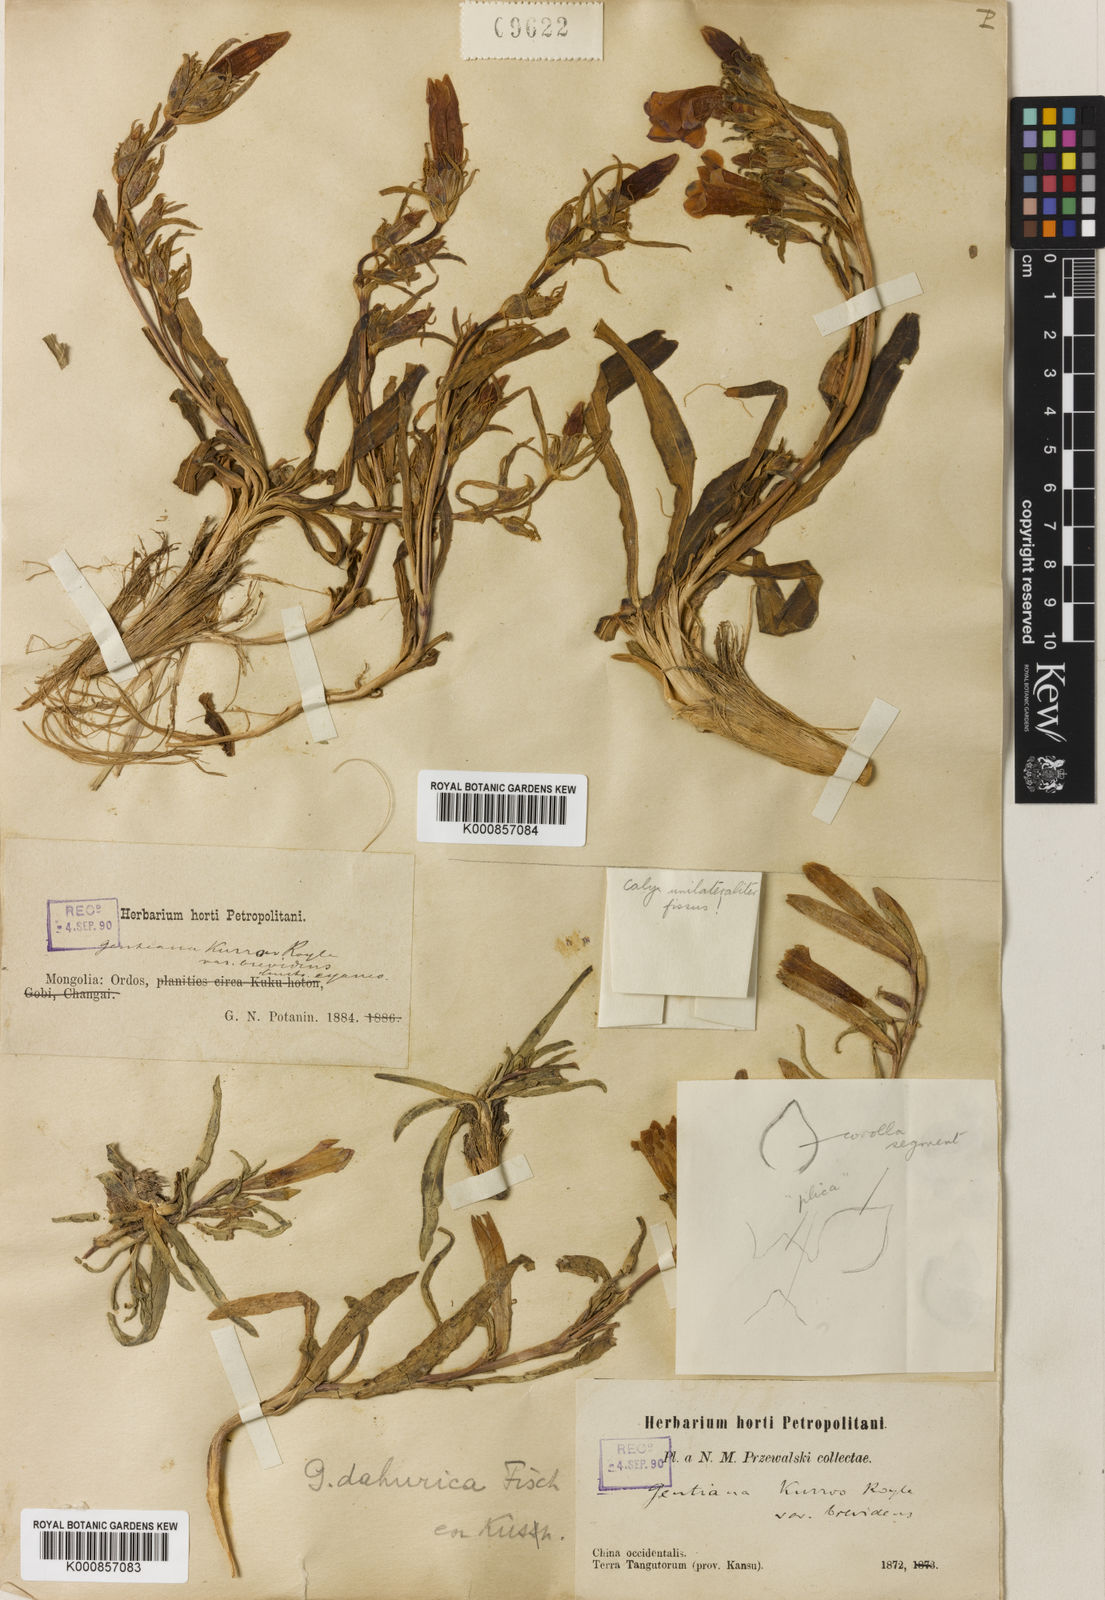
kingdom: Plantae
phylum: Tracheophyta
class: Magnoliopsida
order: Gentianales
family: Gentianaceae
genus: Gentiana
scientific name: Gentiana dahurica
